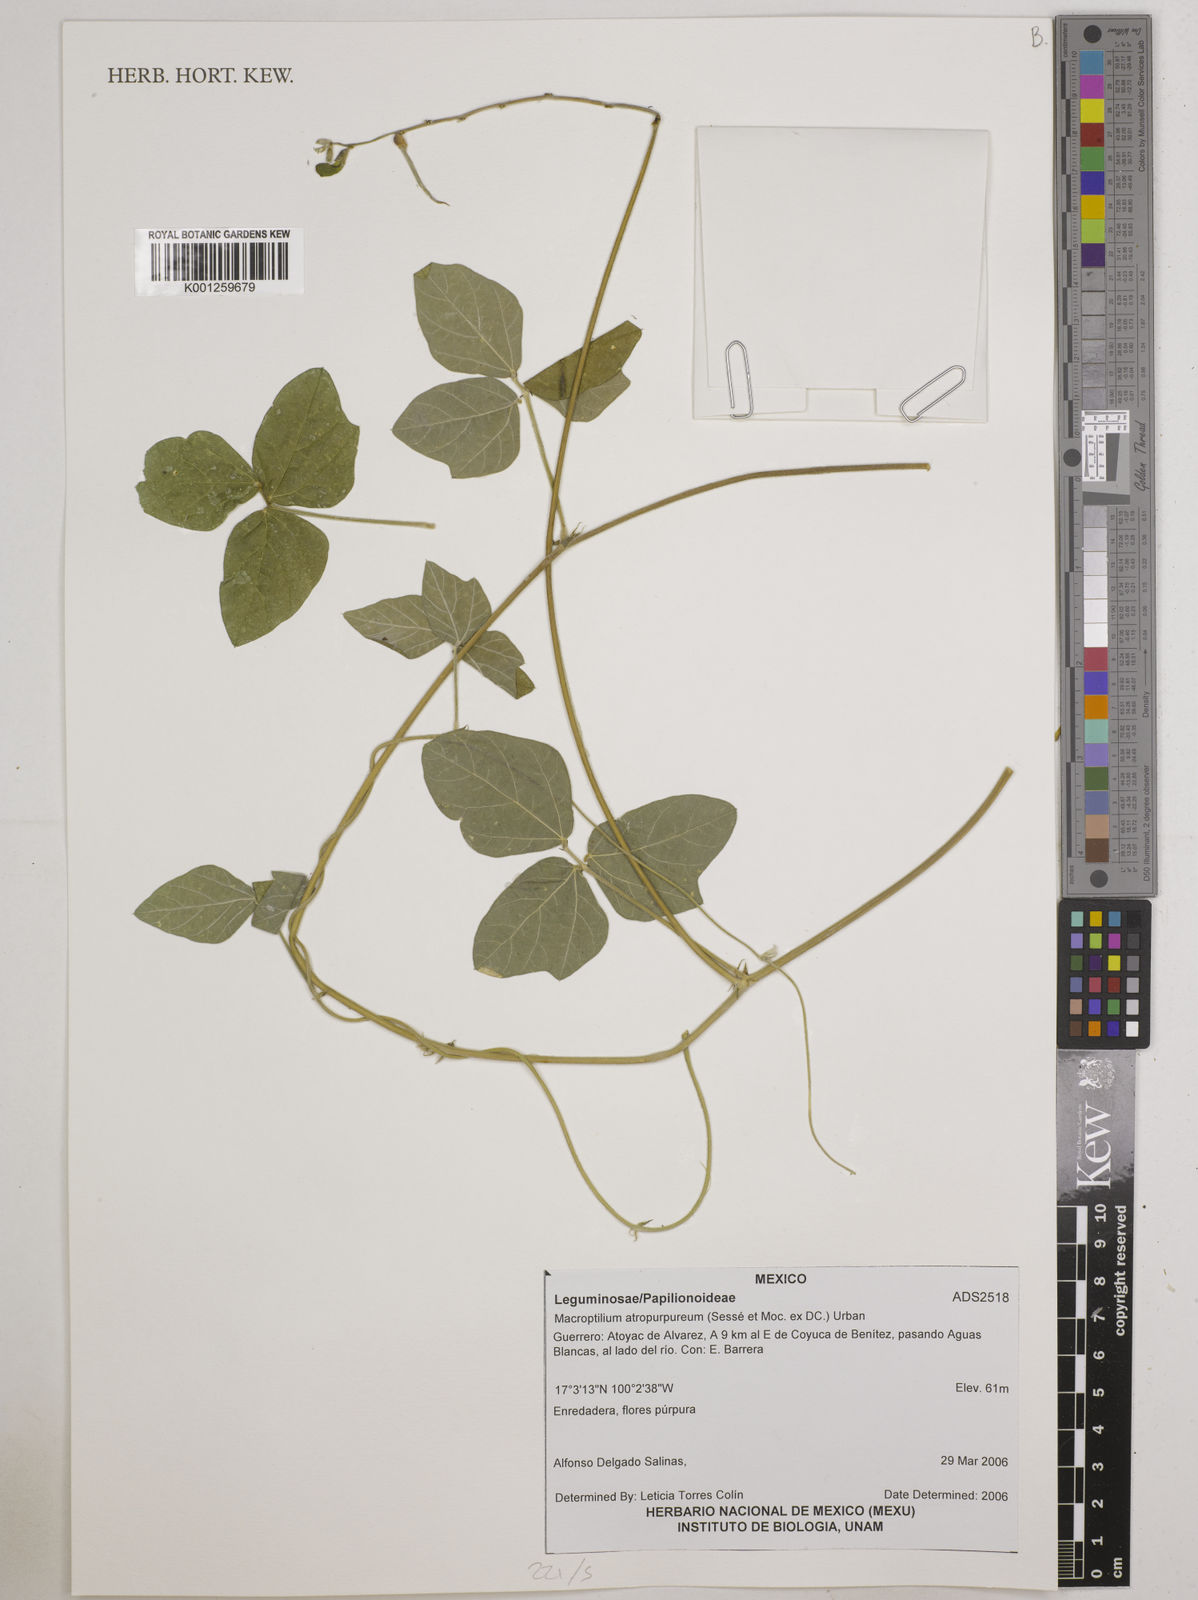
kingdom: Plantae
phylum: Tracheophyta
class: Magnoliopsida
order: Fabales
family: Fabaceae
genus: Macroptilium
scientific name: Macroptilium atropurpureum
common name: Purple bushbean
